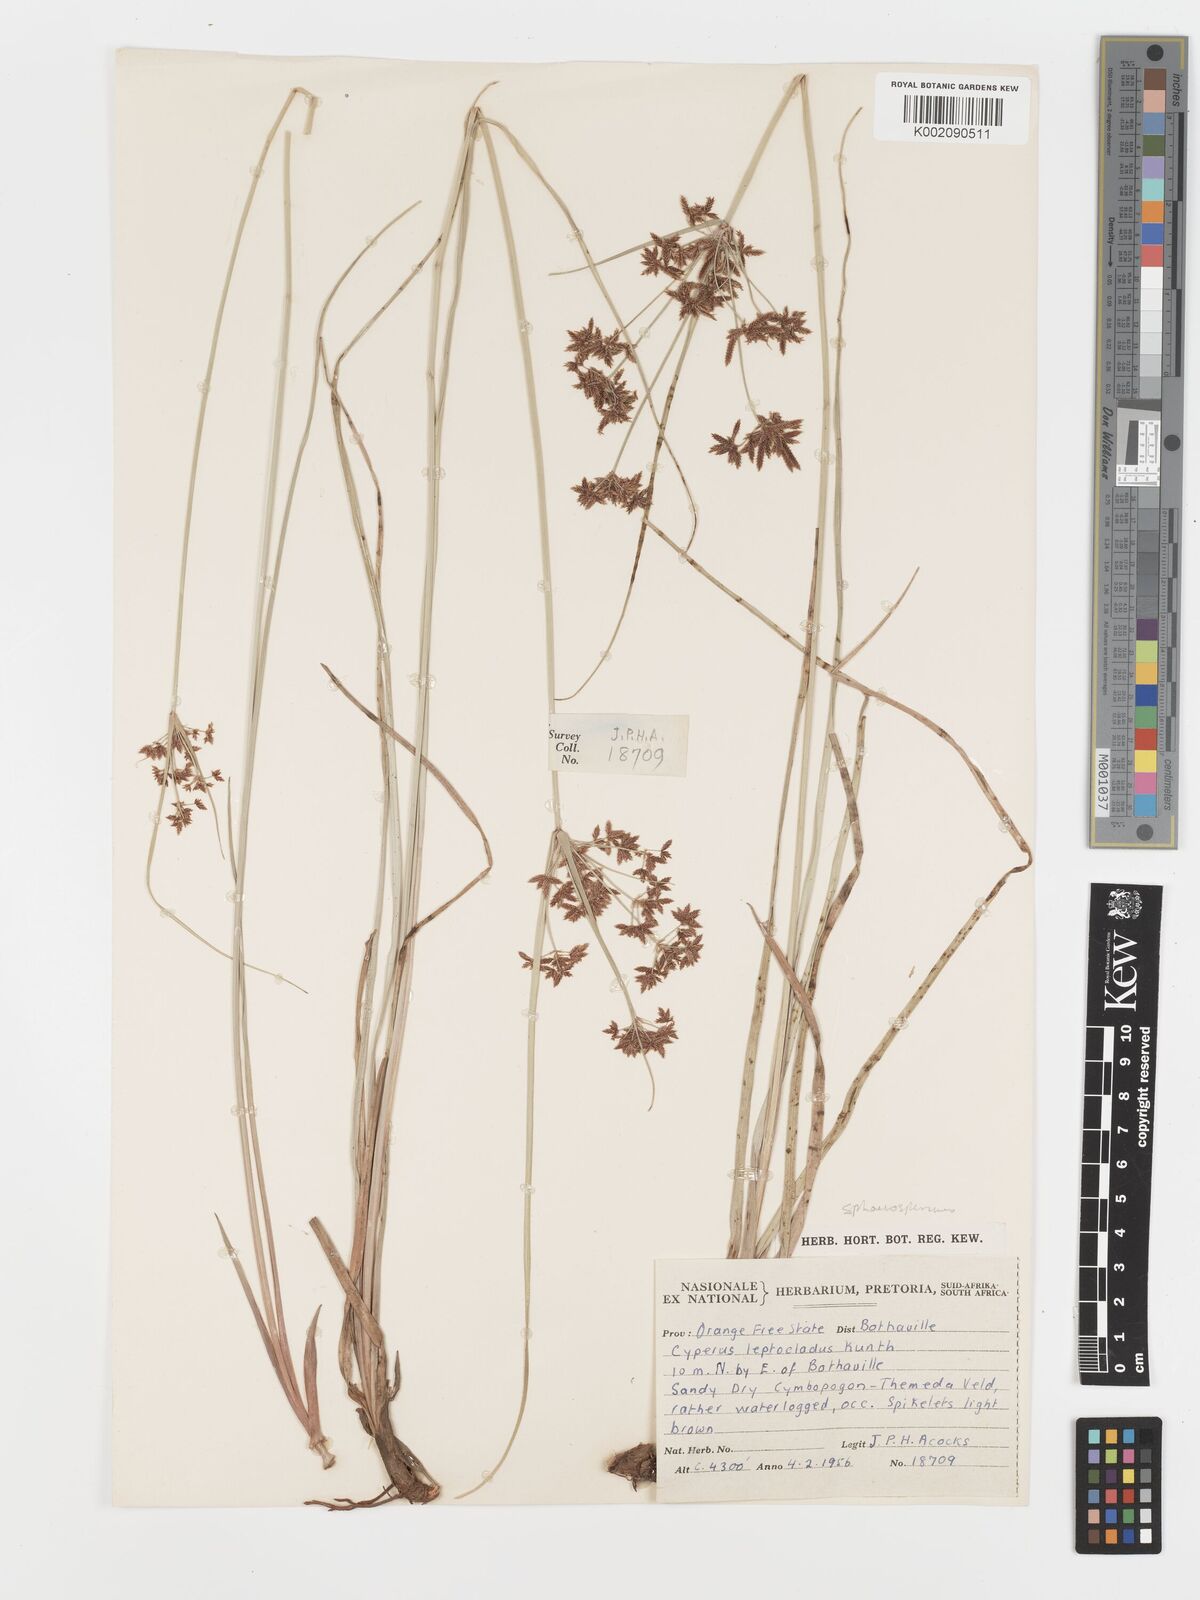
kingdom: Plantae
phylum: Tracheophyta
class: Liliopsida
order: Poales
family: Cyperaceae
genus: Cyperus
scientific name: Cyperus sphaerospermus
